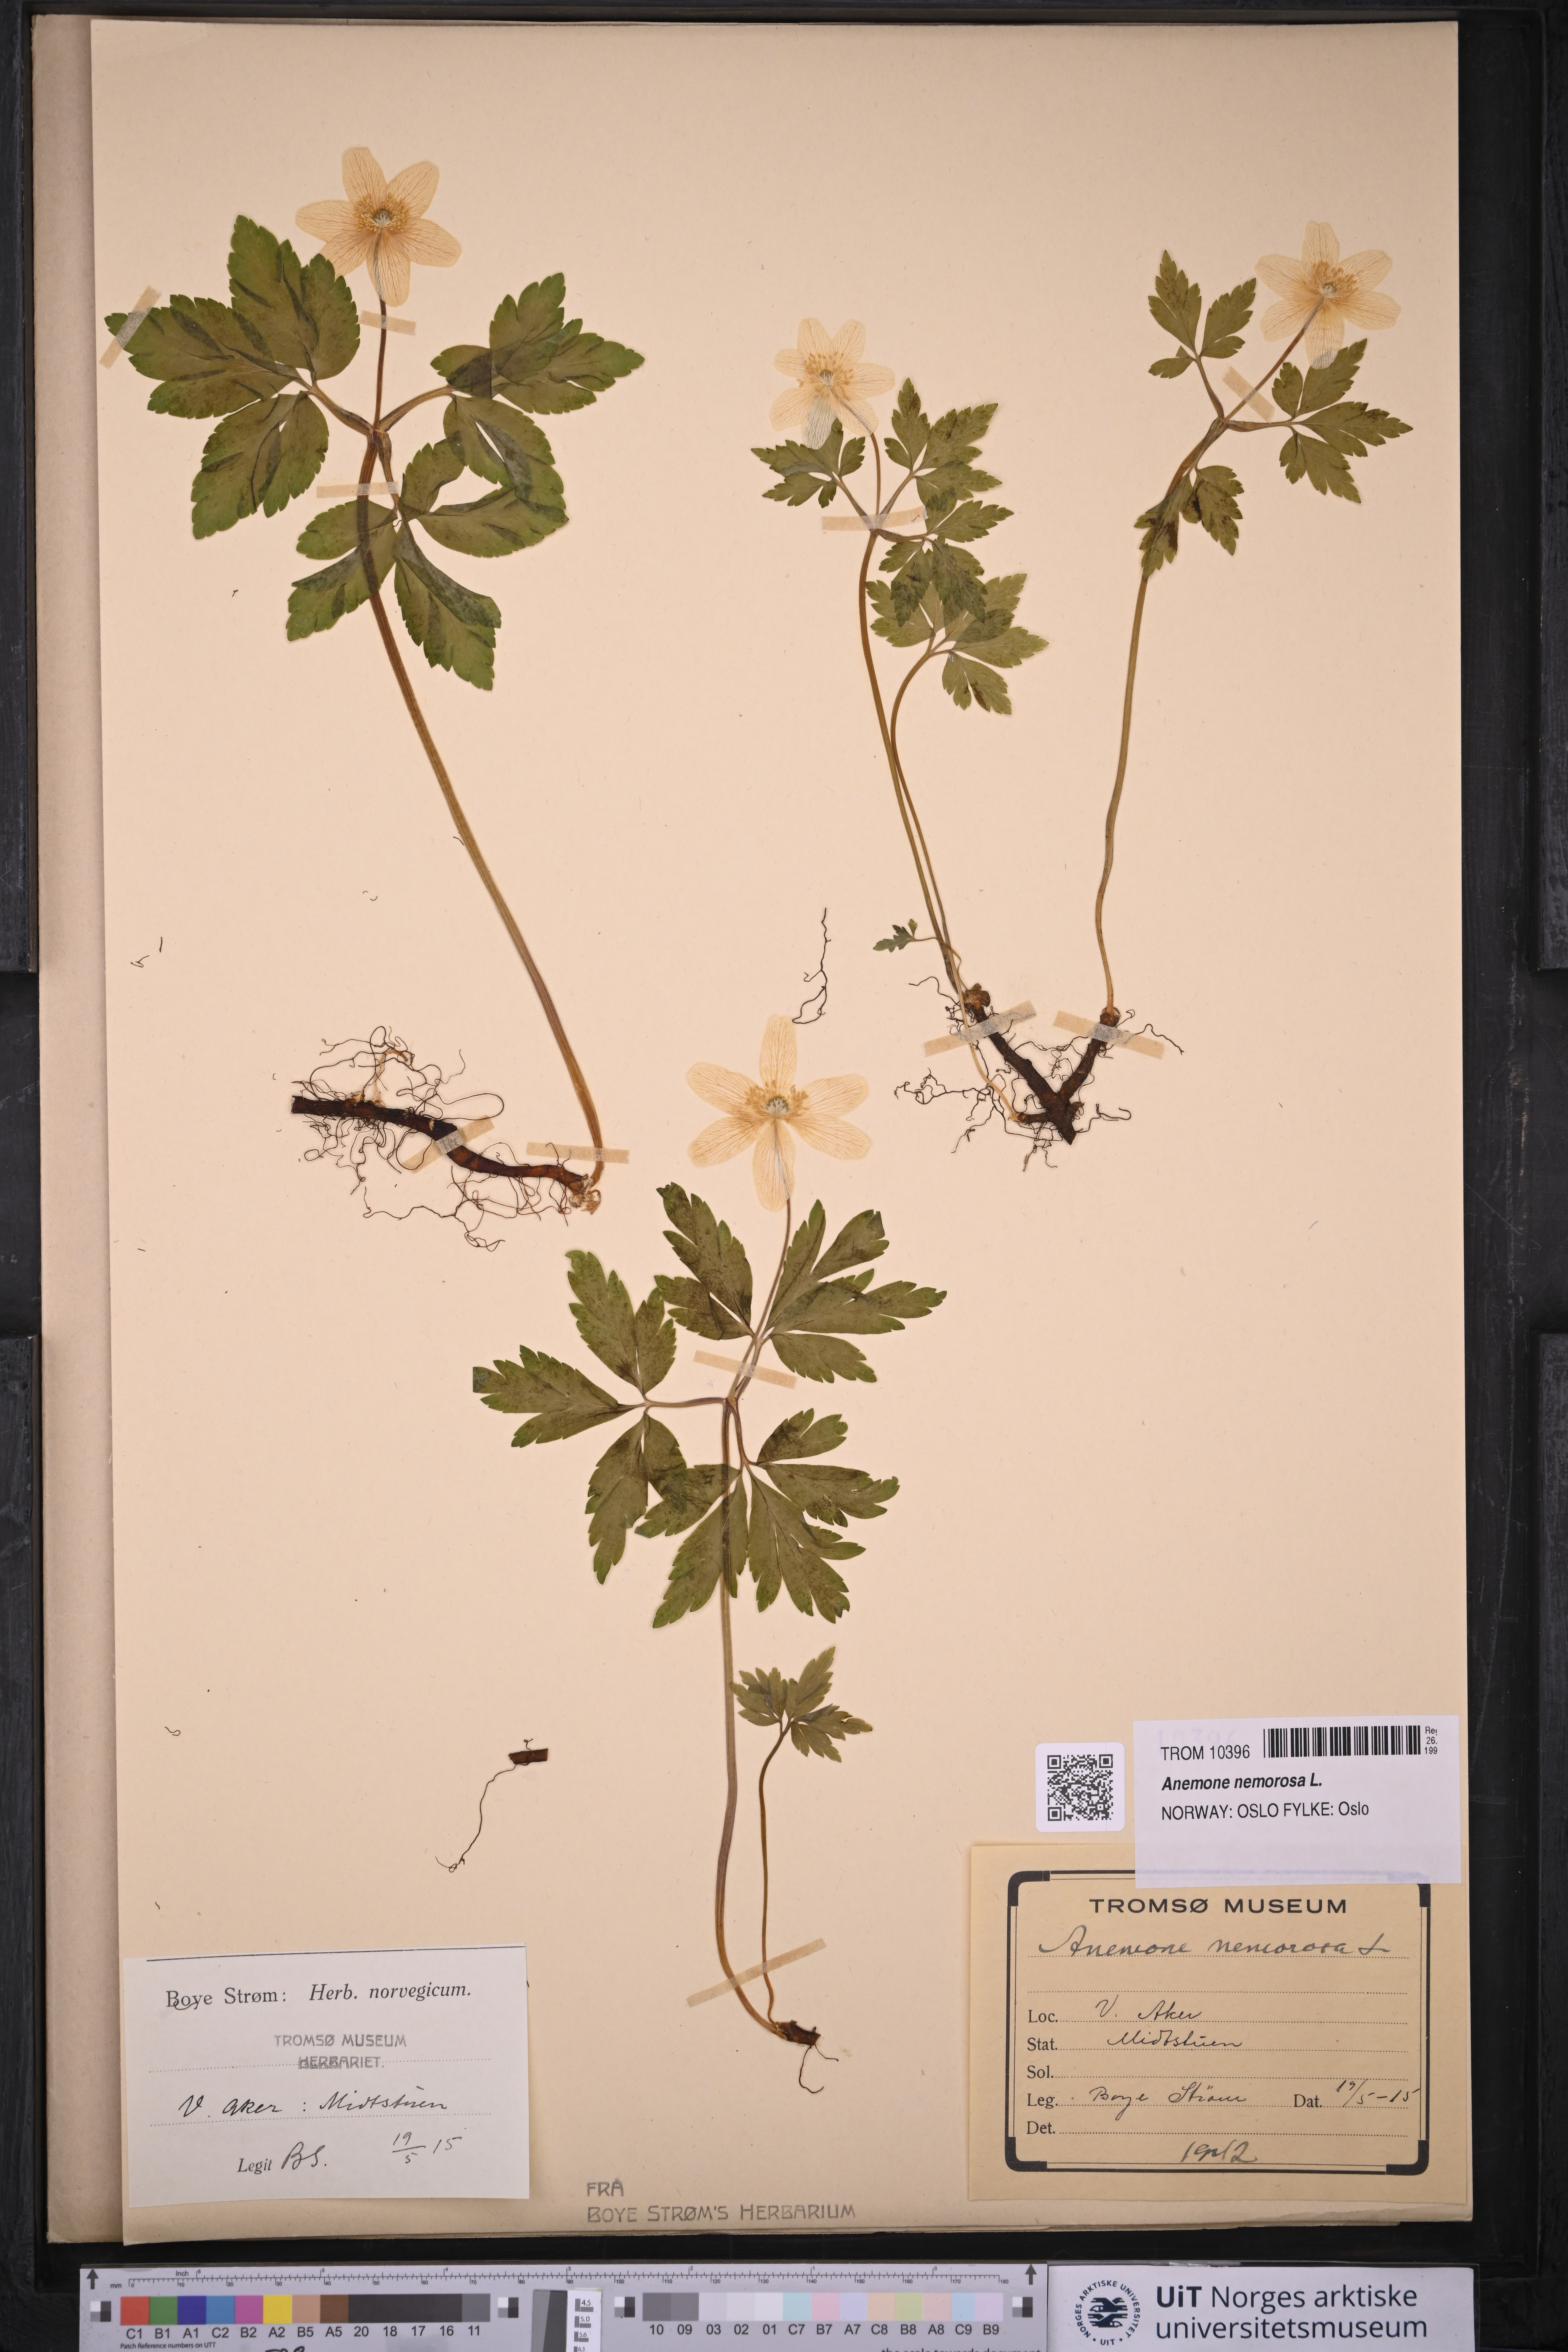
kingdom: Plantae
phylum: Tracheophyta
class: Magnoliopsida
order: Ranunculales
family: Ranunculaceae
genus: Anemone
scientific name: Anemone nemorosa
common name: Wood anemone
